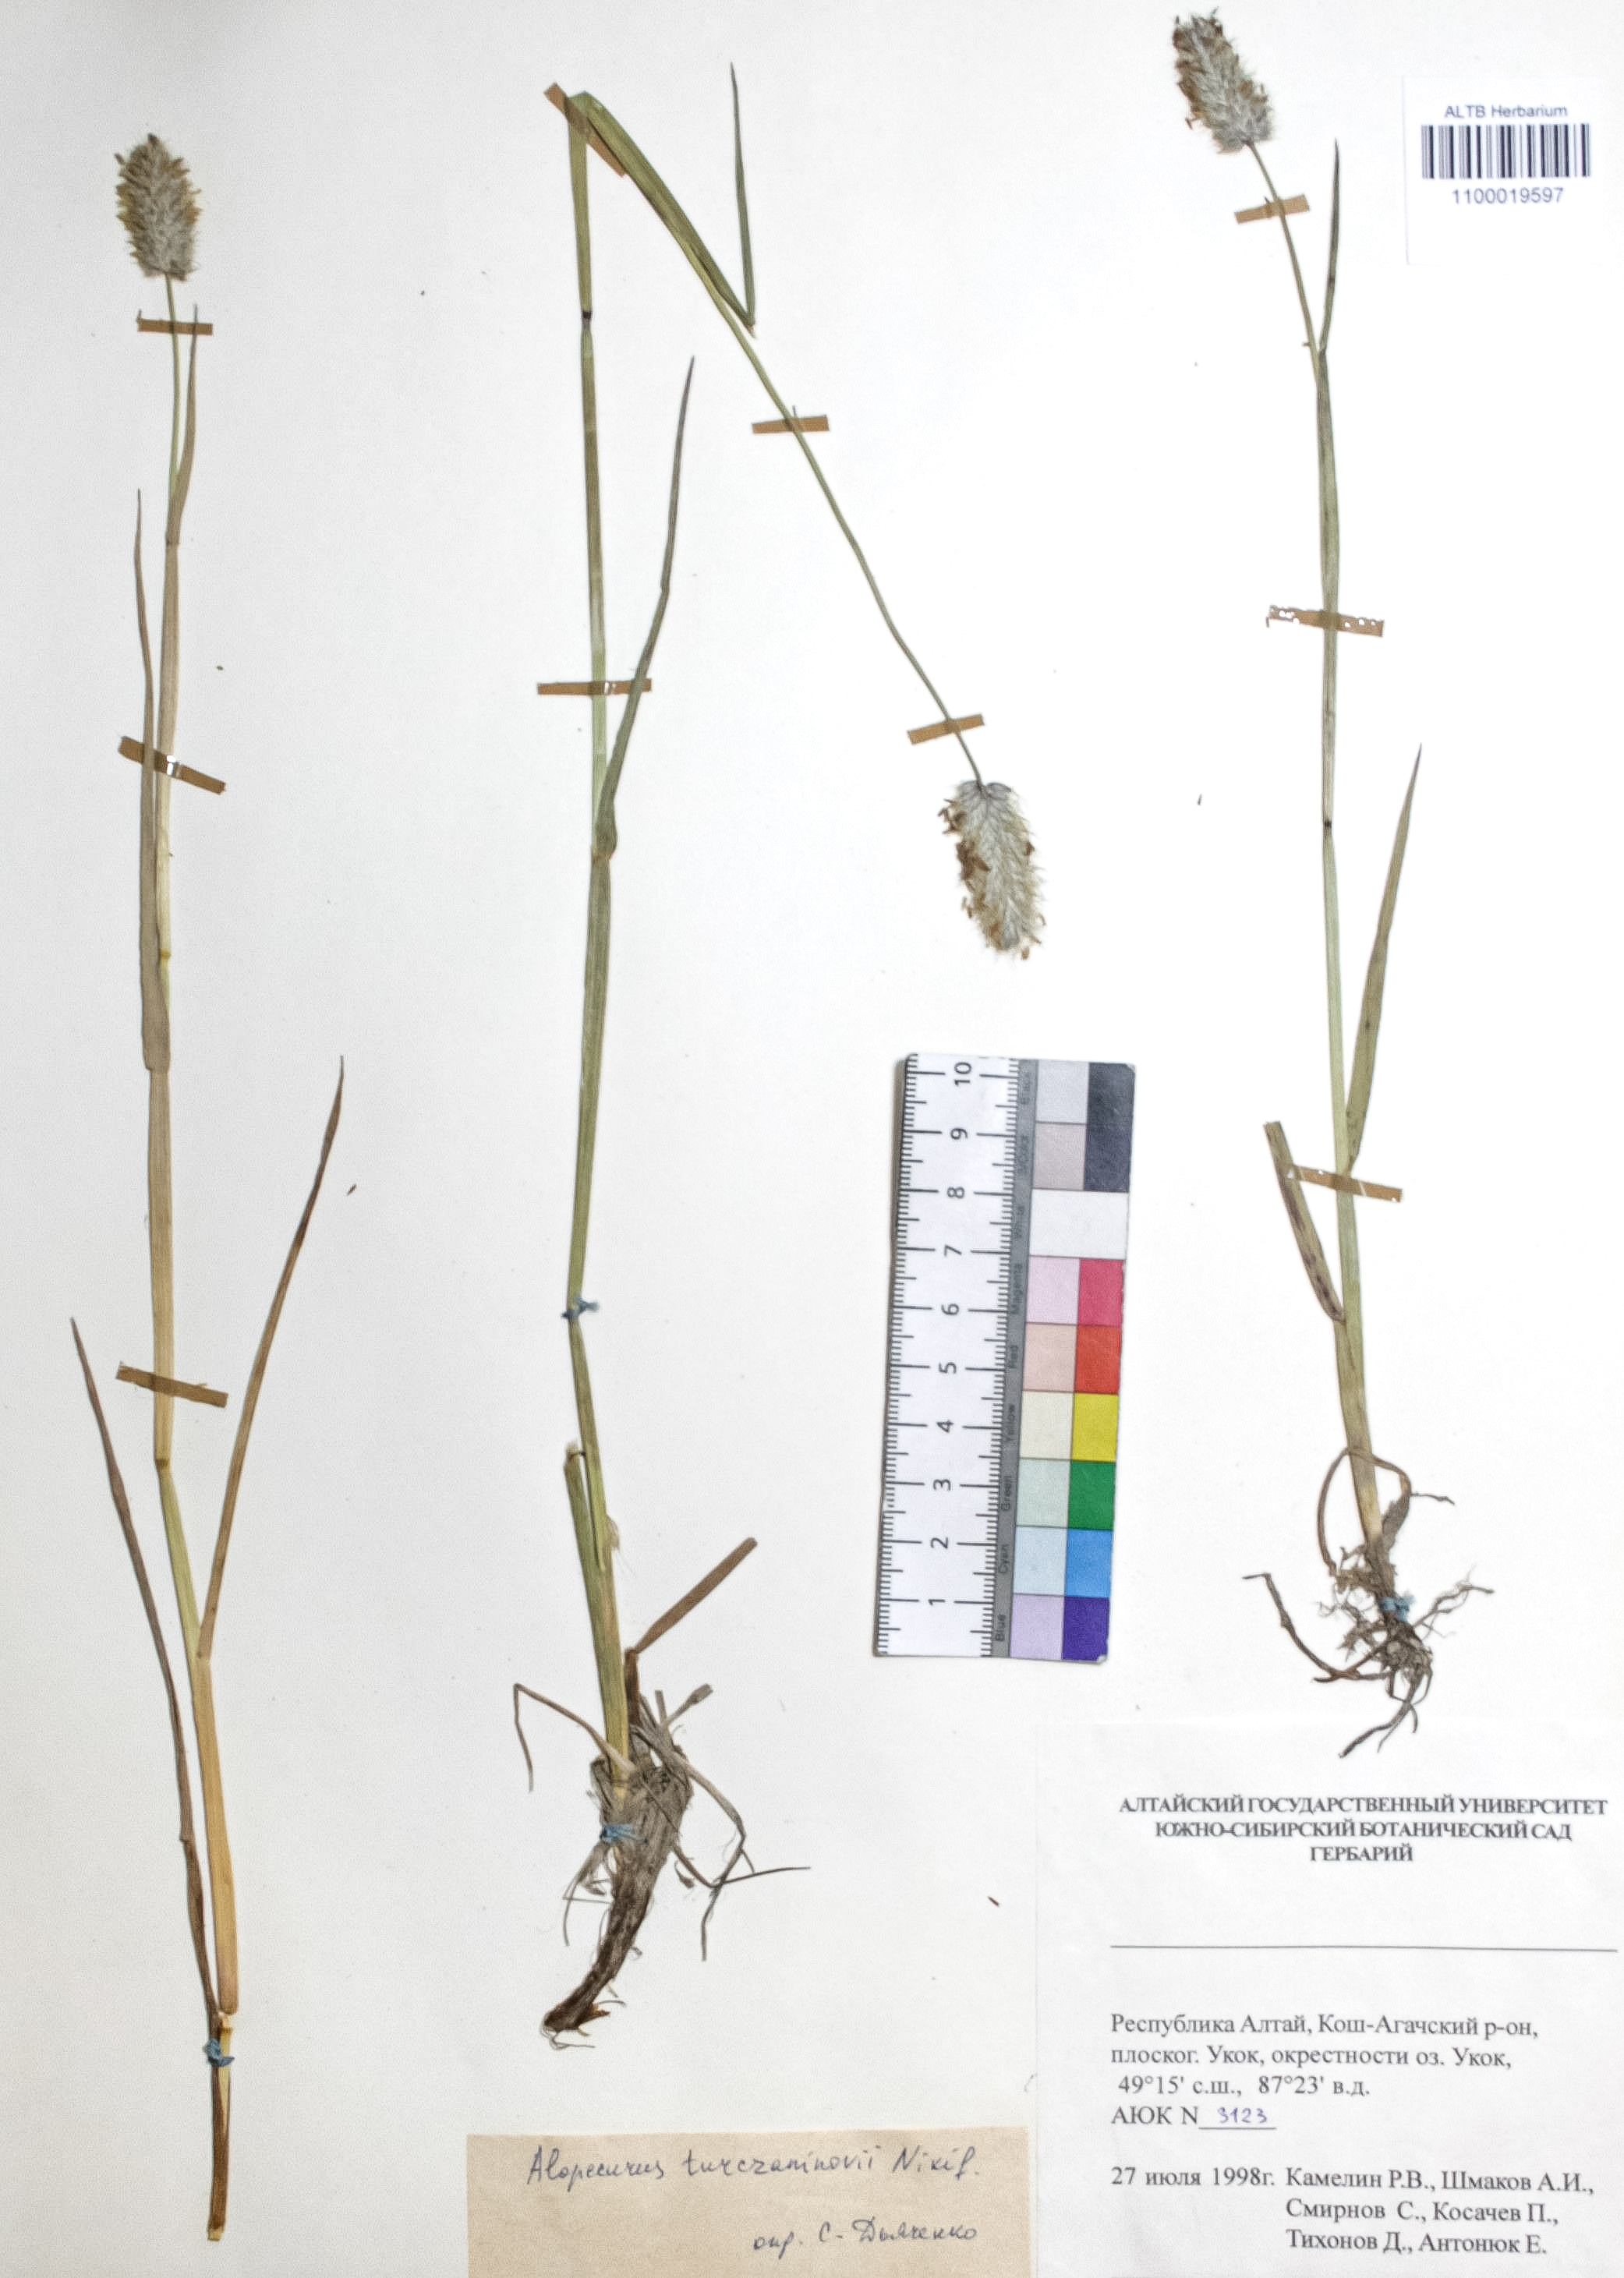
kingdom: Plantae
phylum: Tracheophyta
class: Liliopsida
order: Poales
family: Poaceae
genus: Alopecurus
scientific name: Alopecurus turczaninovii
